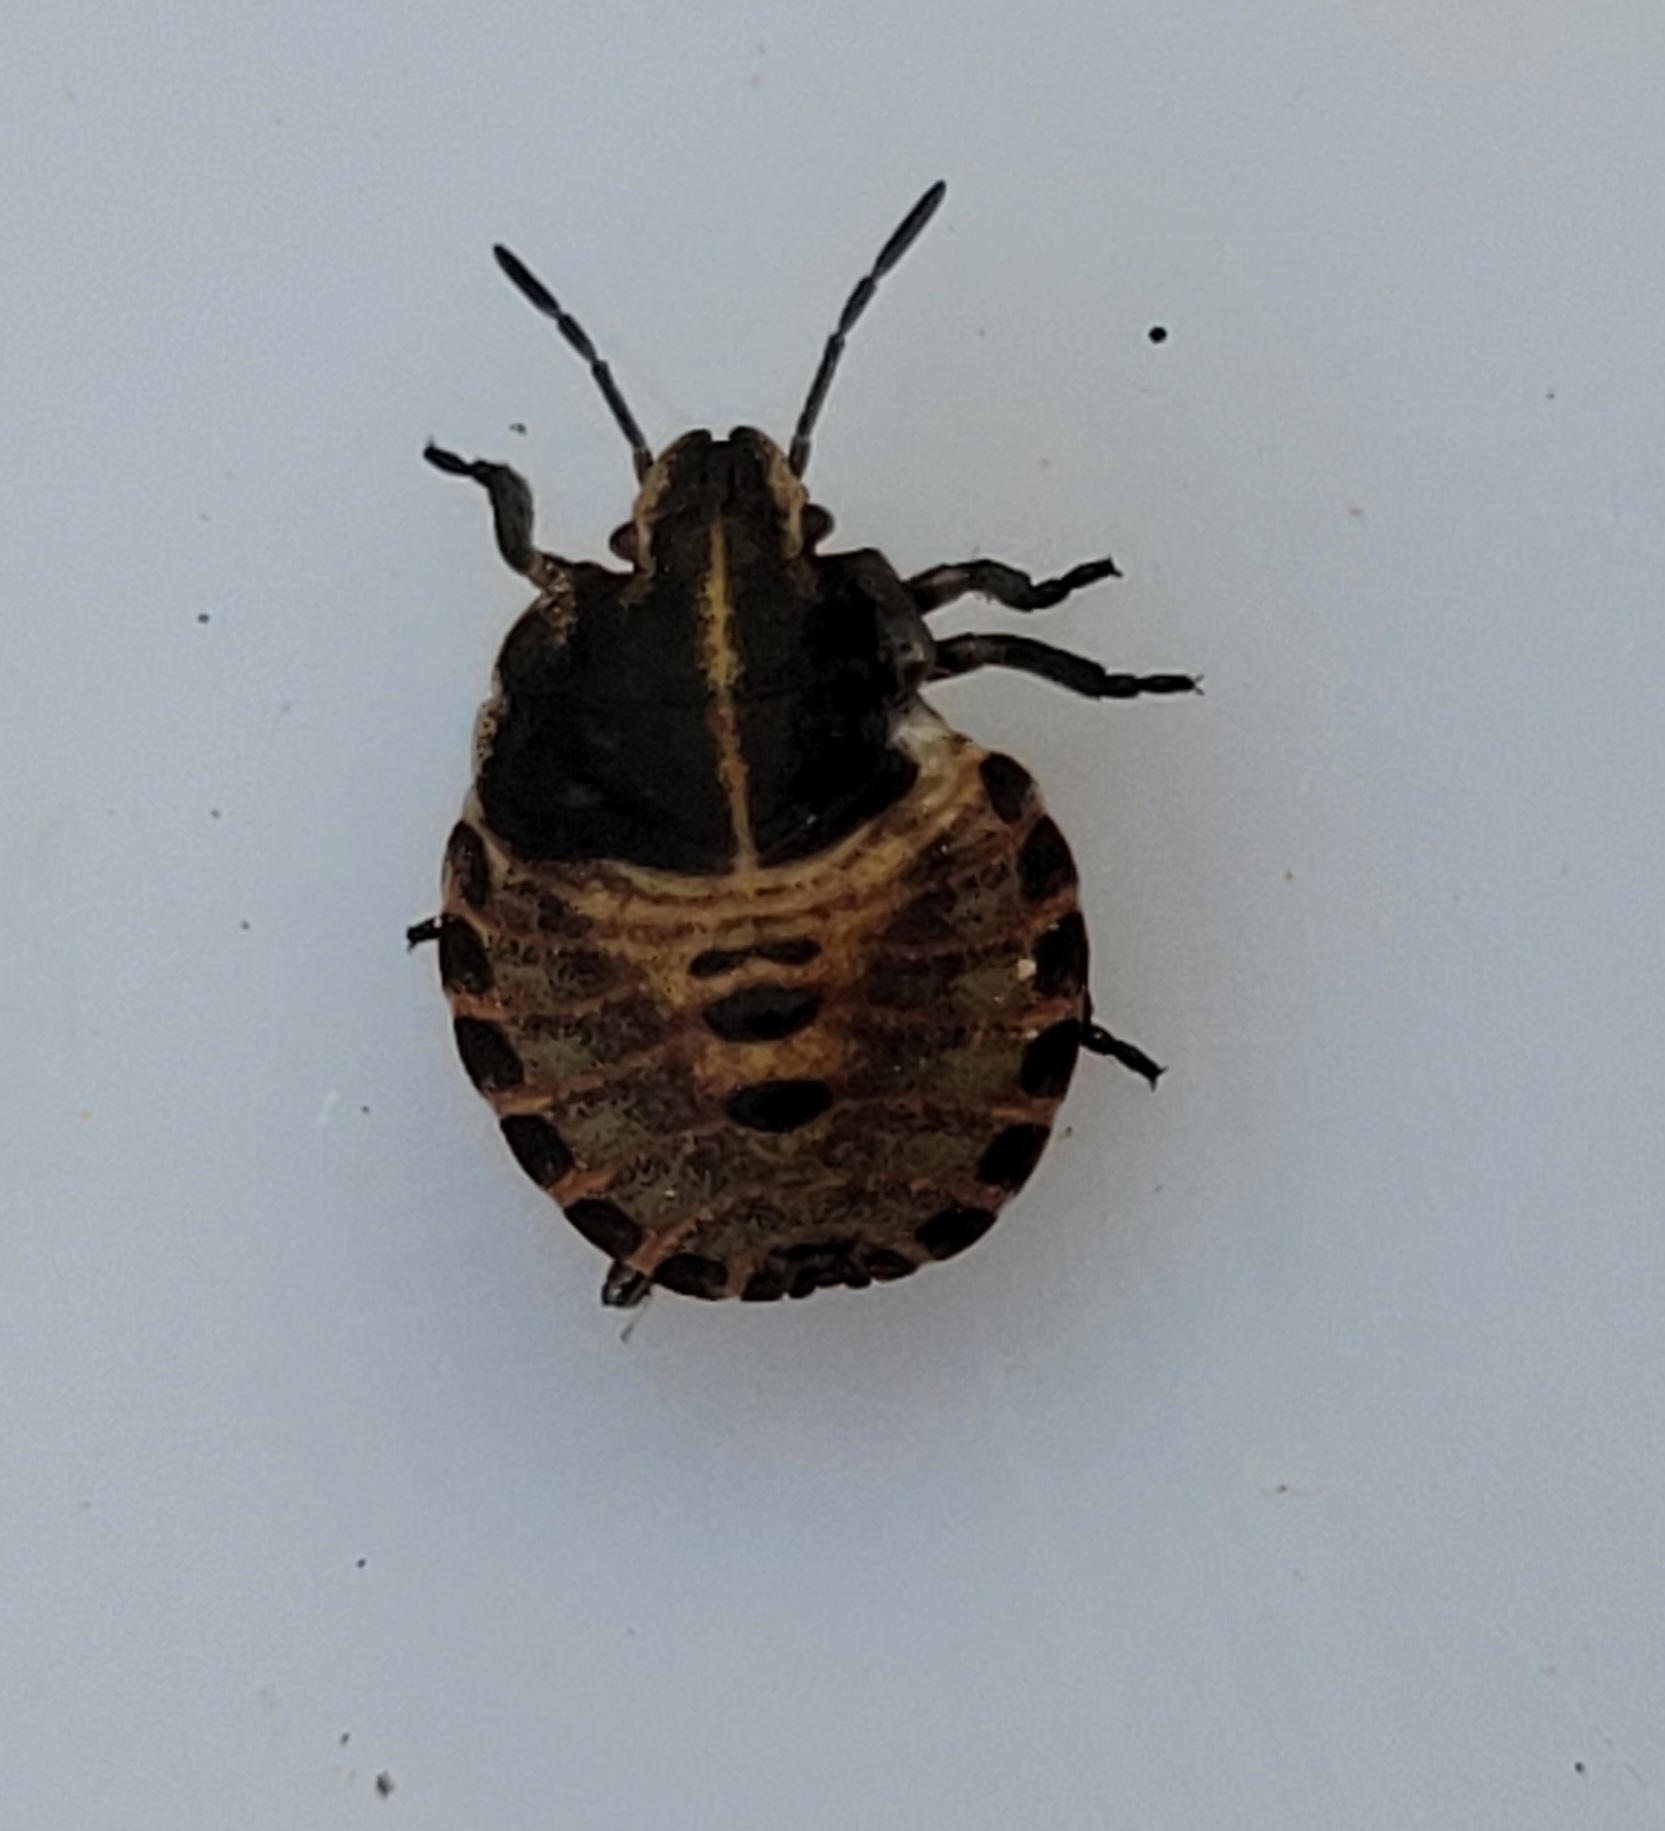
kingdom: Animalia
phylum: Arthropoda
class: Insecta
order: Hemiptera
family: Pentatomidae
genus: Graphosoma
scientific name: Graphosoma italicum
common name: Stribetæge
